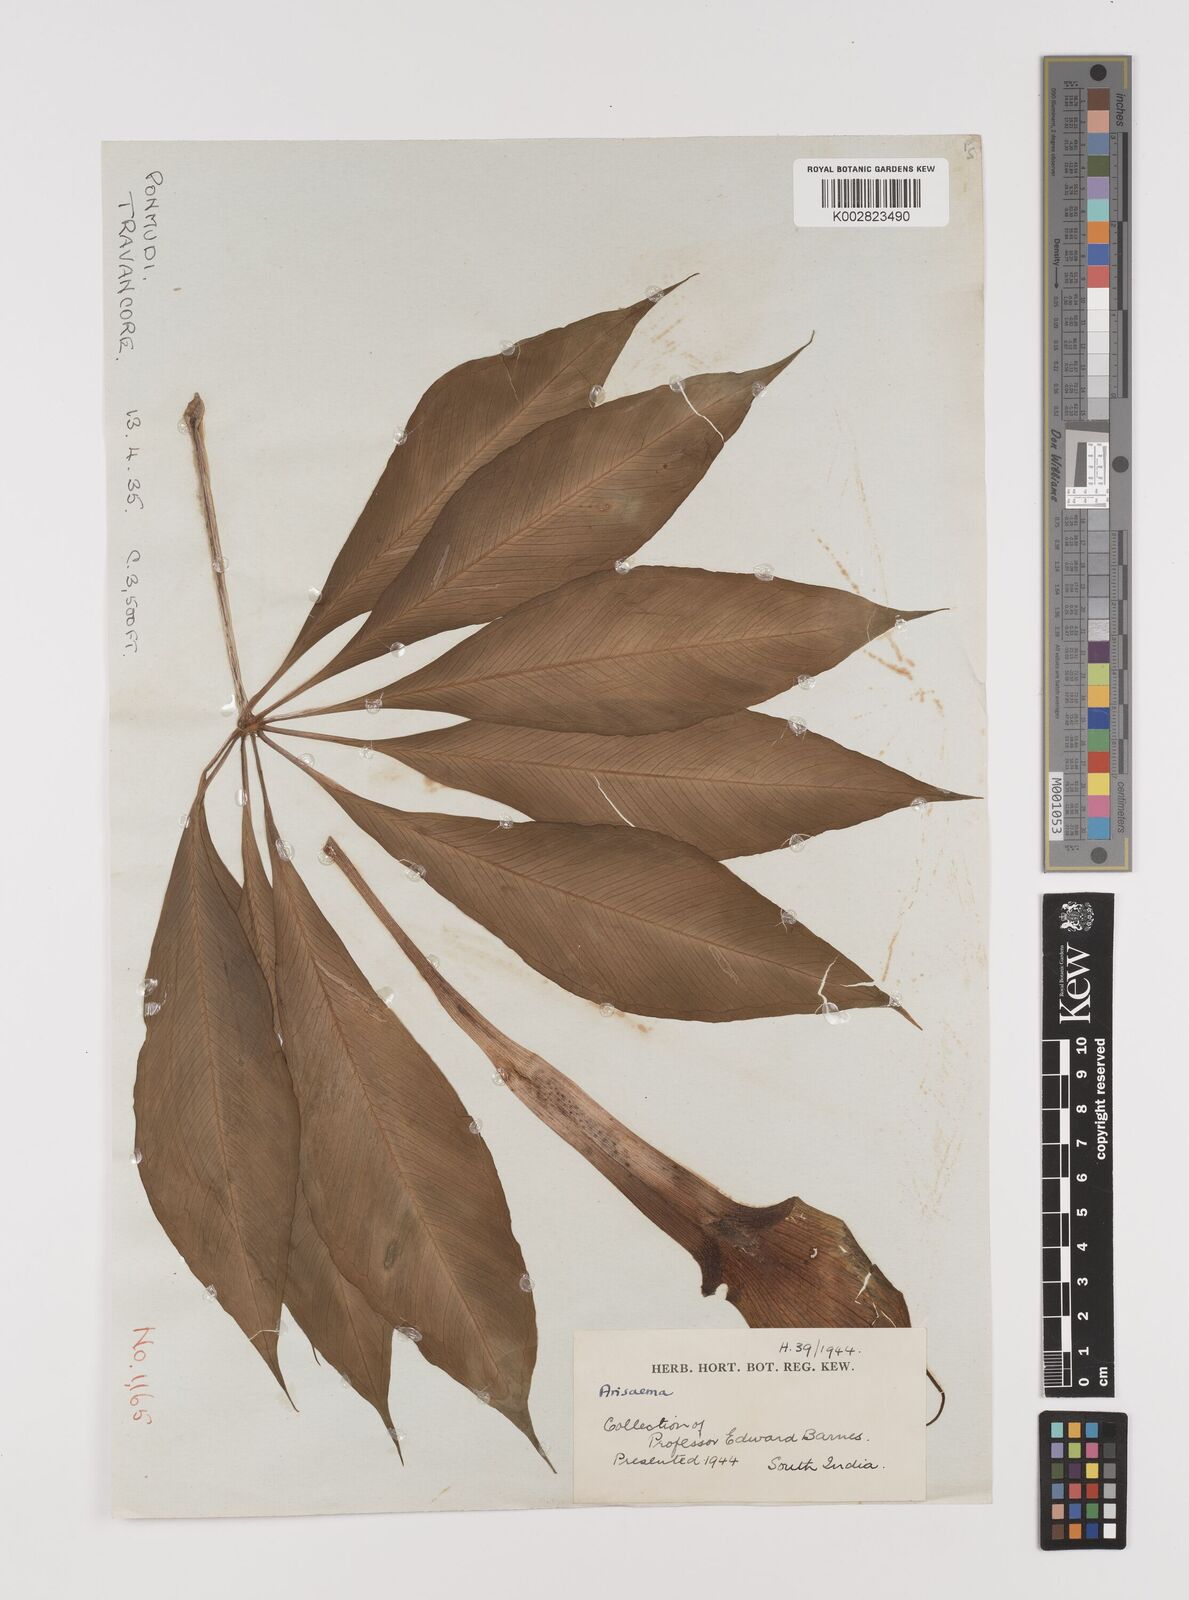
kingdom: Plantae
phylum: Tracheophyta
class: Liliopsida
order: Alismatales
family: Araceae
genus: Arisaema
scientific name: Arisaema
